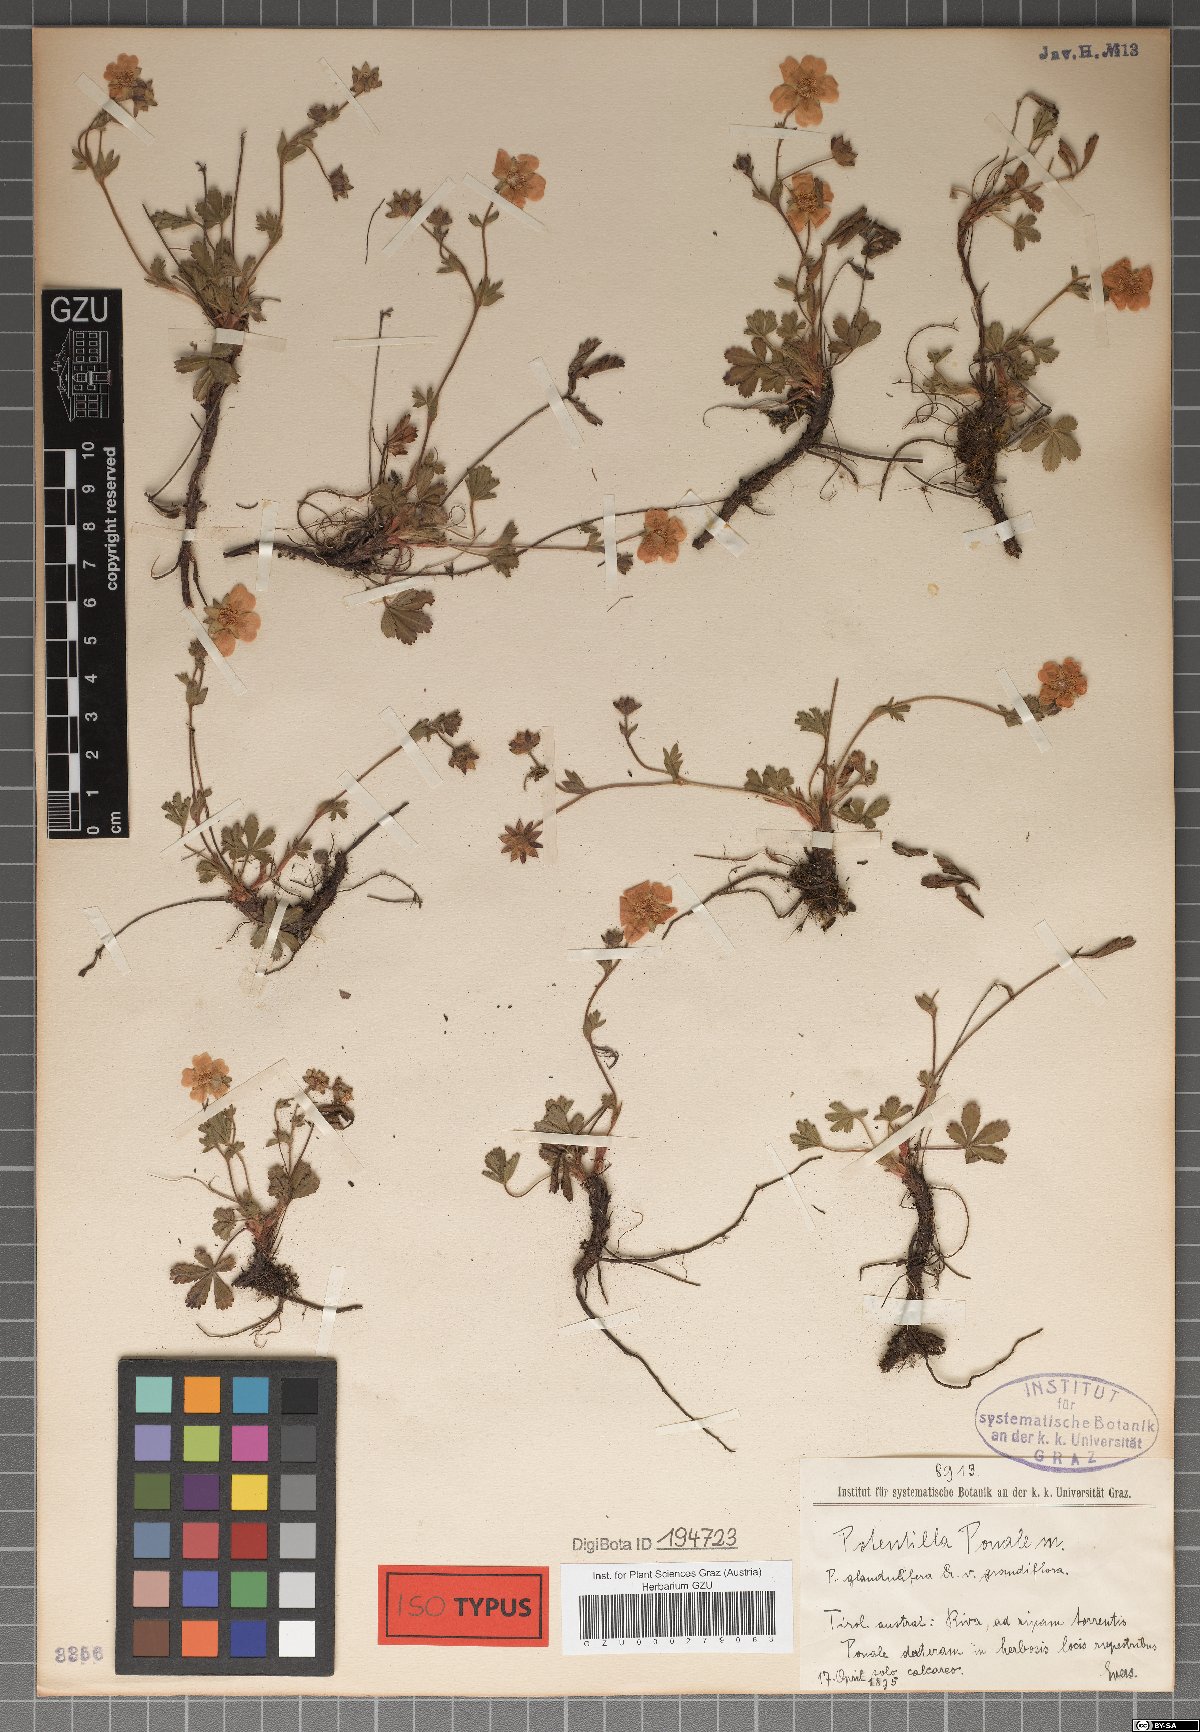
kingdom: Plantae
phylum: Tracheophyta
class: Magnoliopsida
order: Rosales
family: Rosaceae
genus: Potentilla
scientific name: Potentilla pusilla
